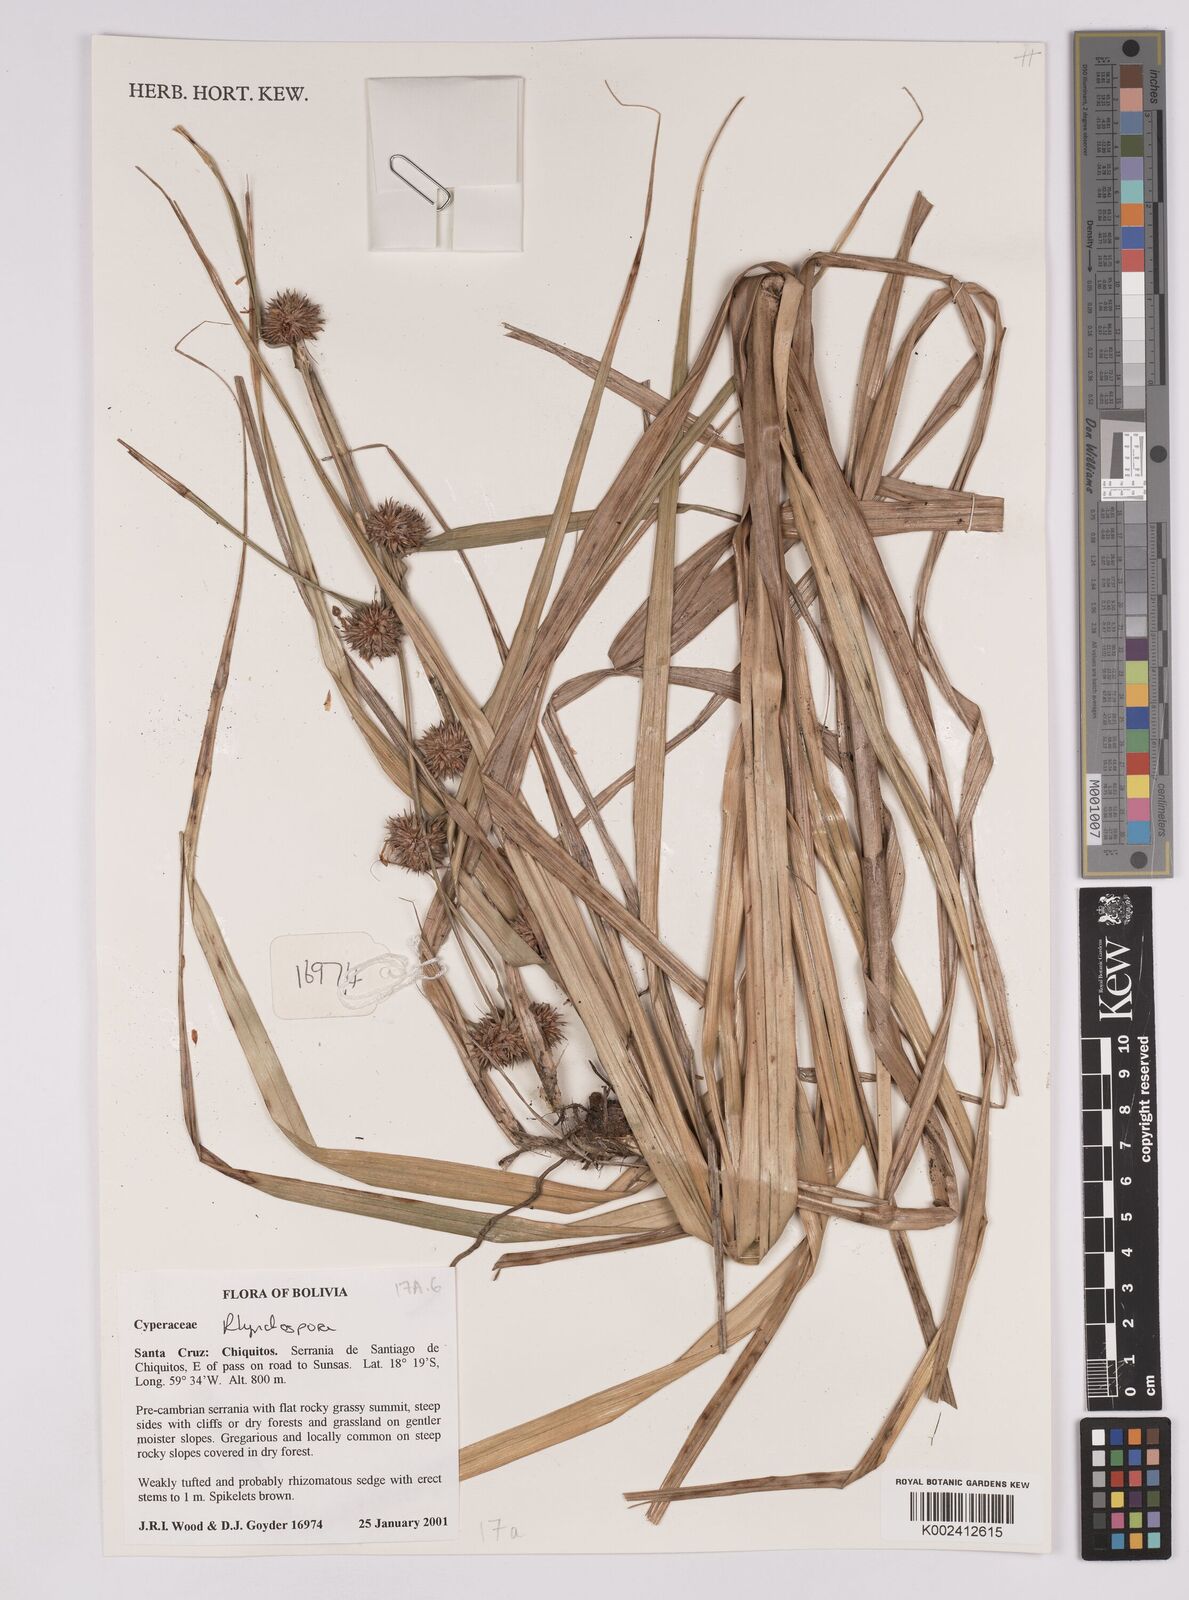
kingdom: Plantae
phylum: Tracheophyta
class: Liliopsida
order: Poales
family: Cyperaceae
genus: Rhynchospora
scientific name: Rhynchospora
